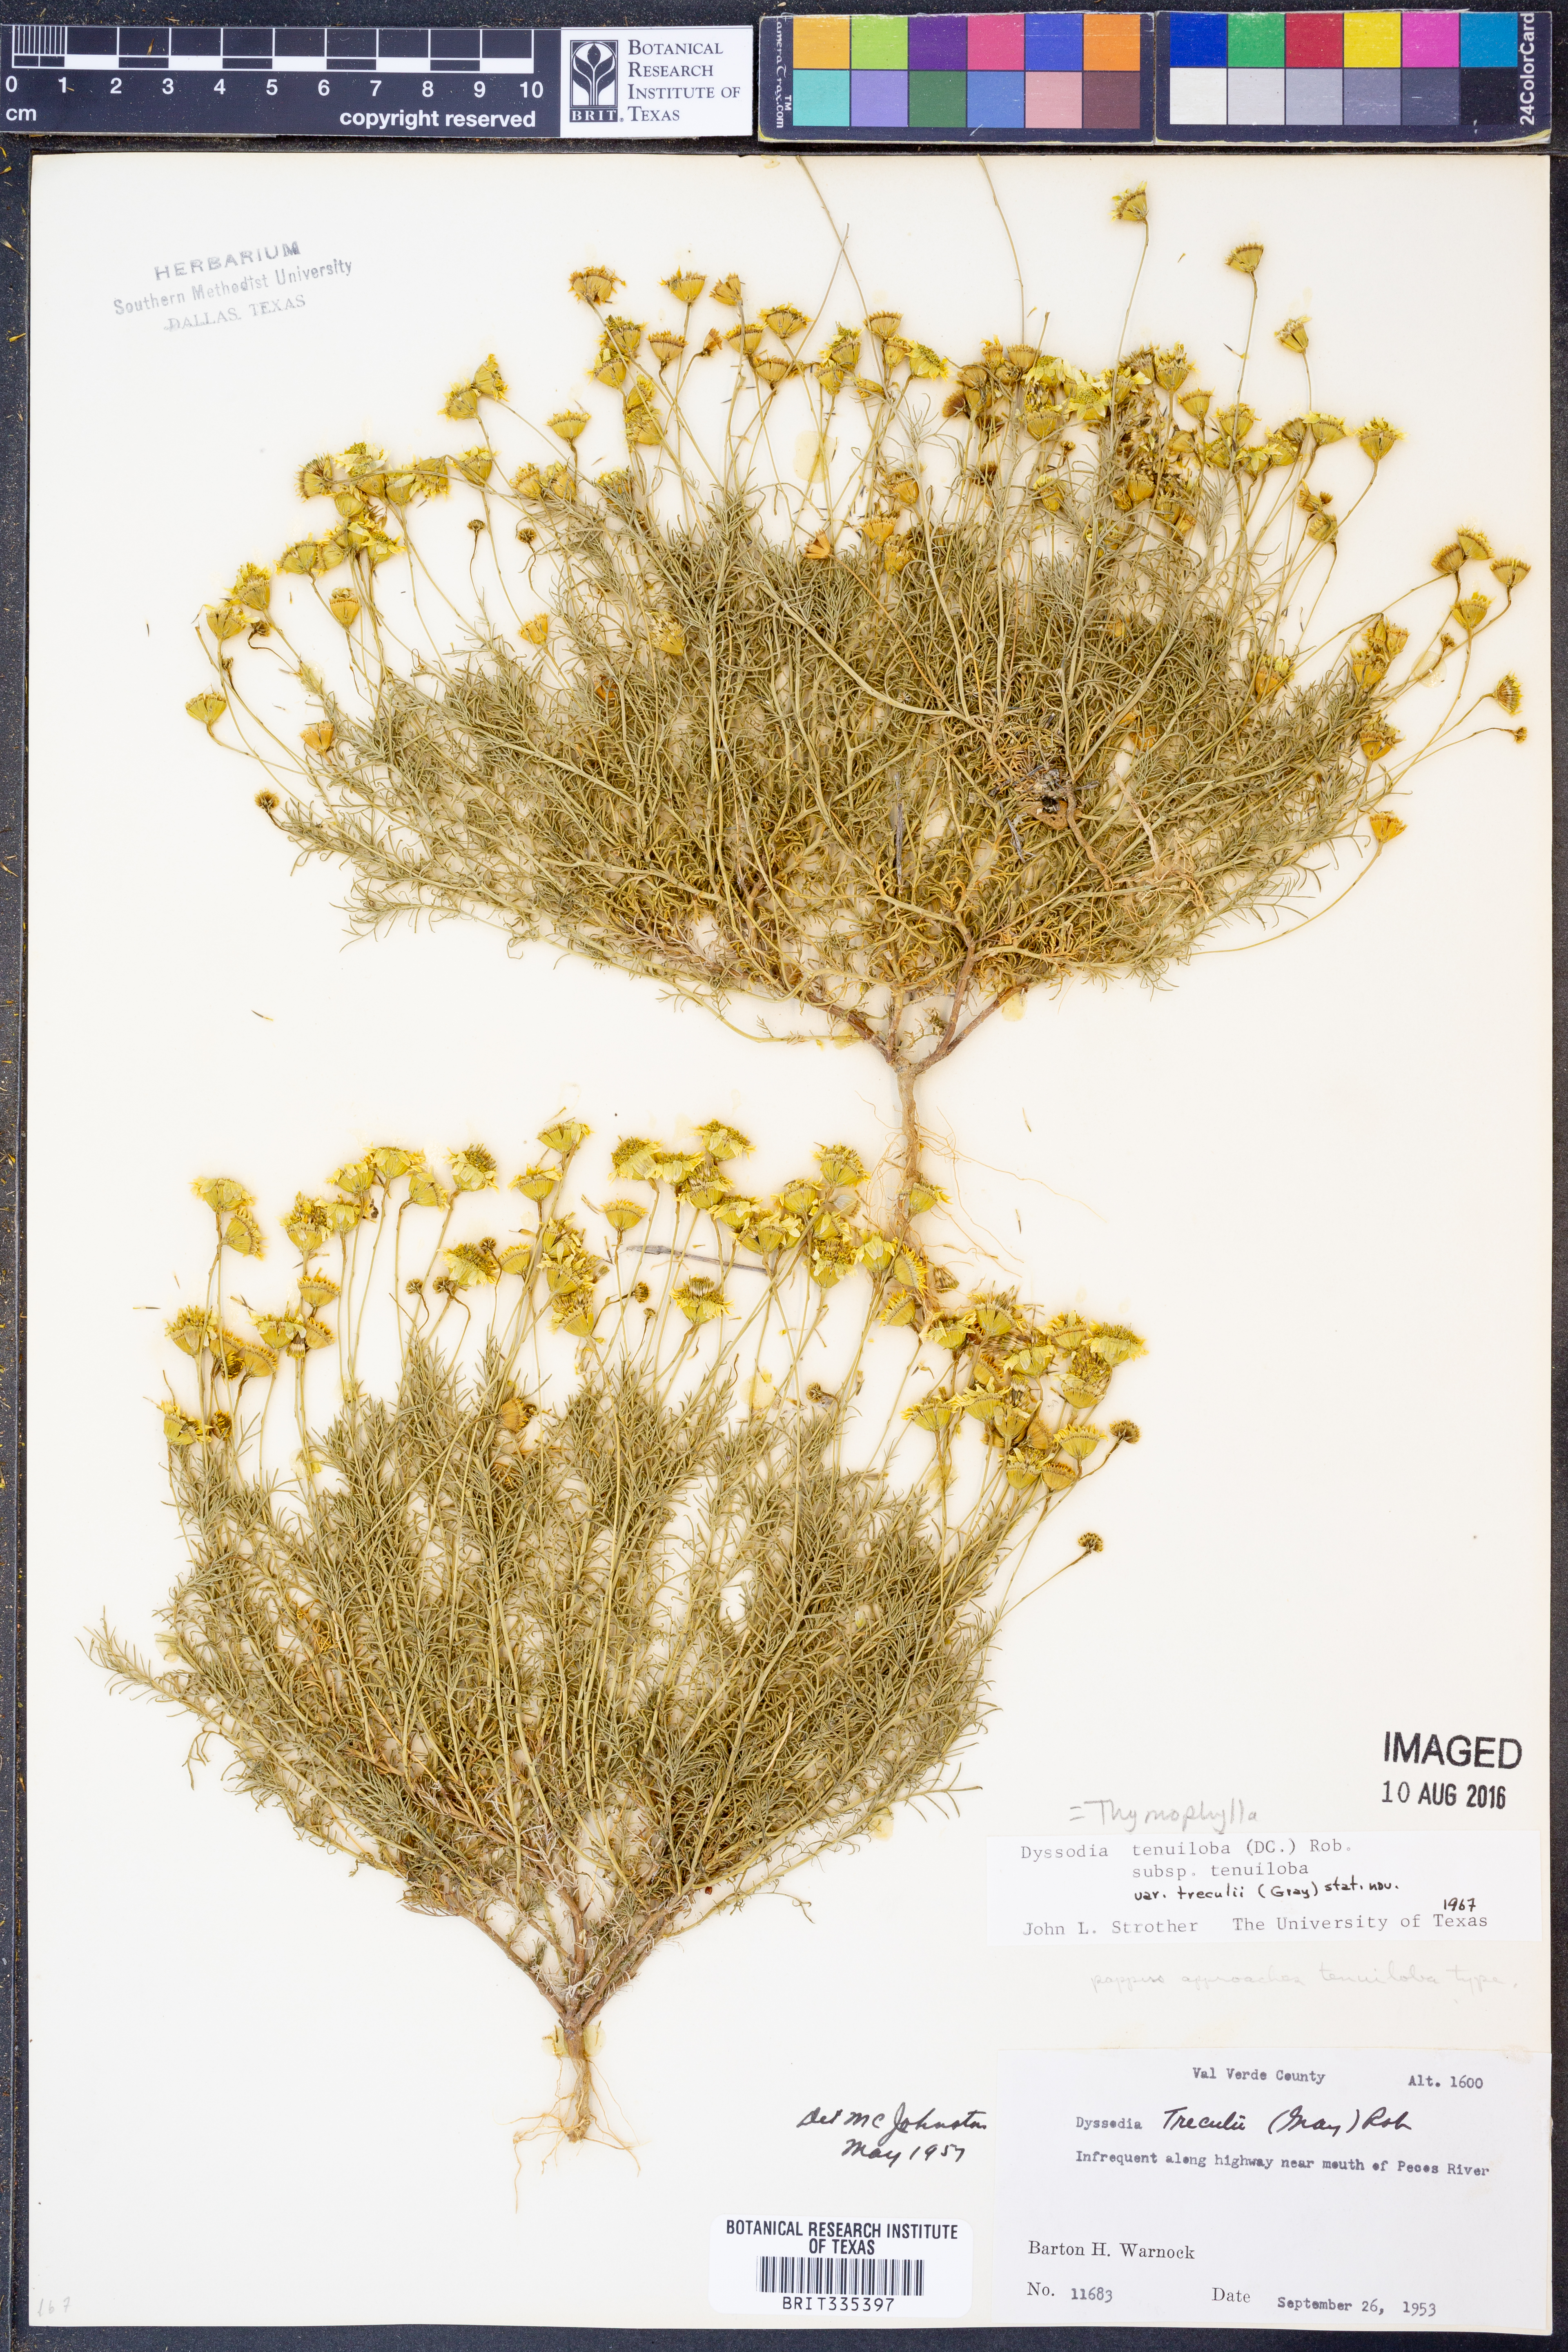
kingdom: Plantae
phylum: Tracheophyta
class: Magnoliopsida
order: Asterales
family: Asteraceae
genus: Thymophylla
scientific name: Thymophylla tenuiloba
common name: Dahlberg's daisy
